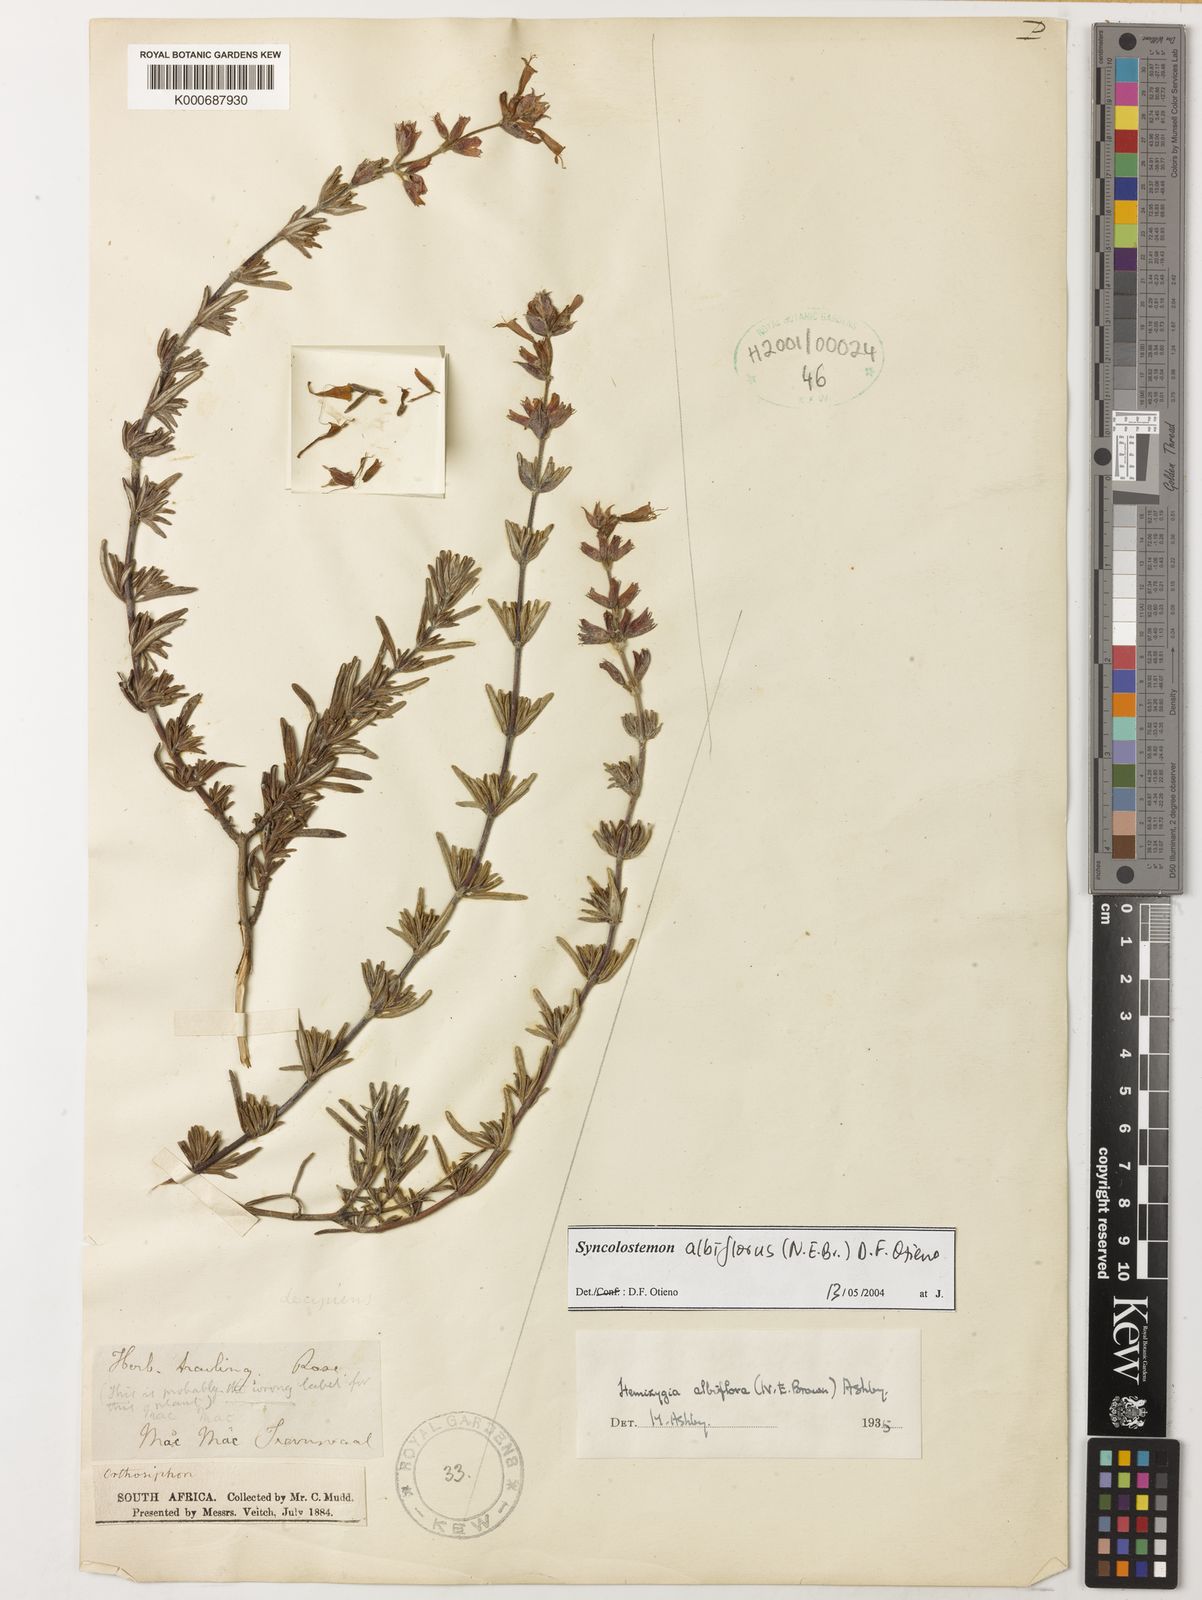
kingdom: Plantae
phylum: Tracheophyta
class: Magnoliopsida
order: Lamiales
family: Lamiaceae
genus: Syncolostemon
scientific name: Syncolostemon albiflorus
